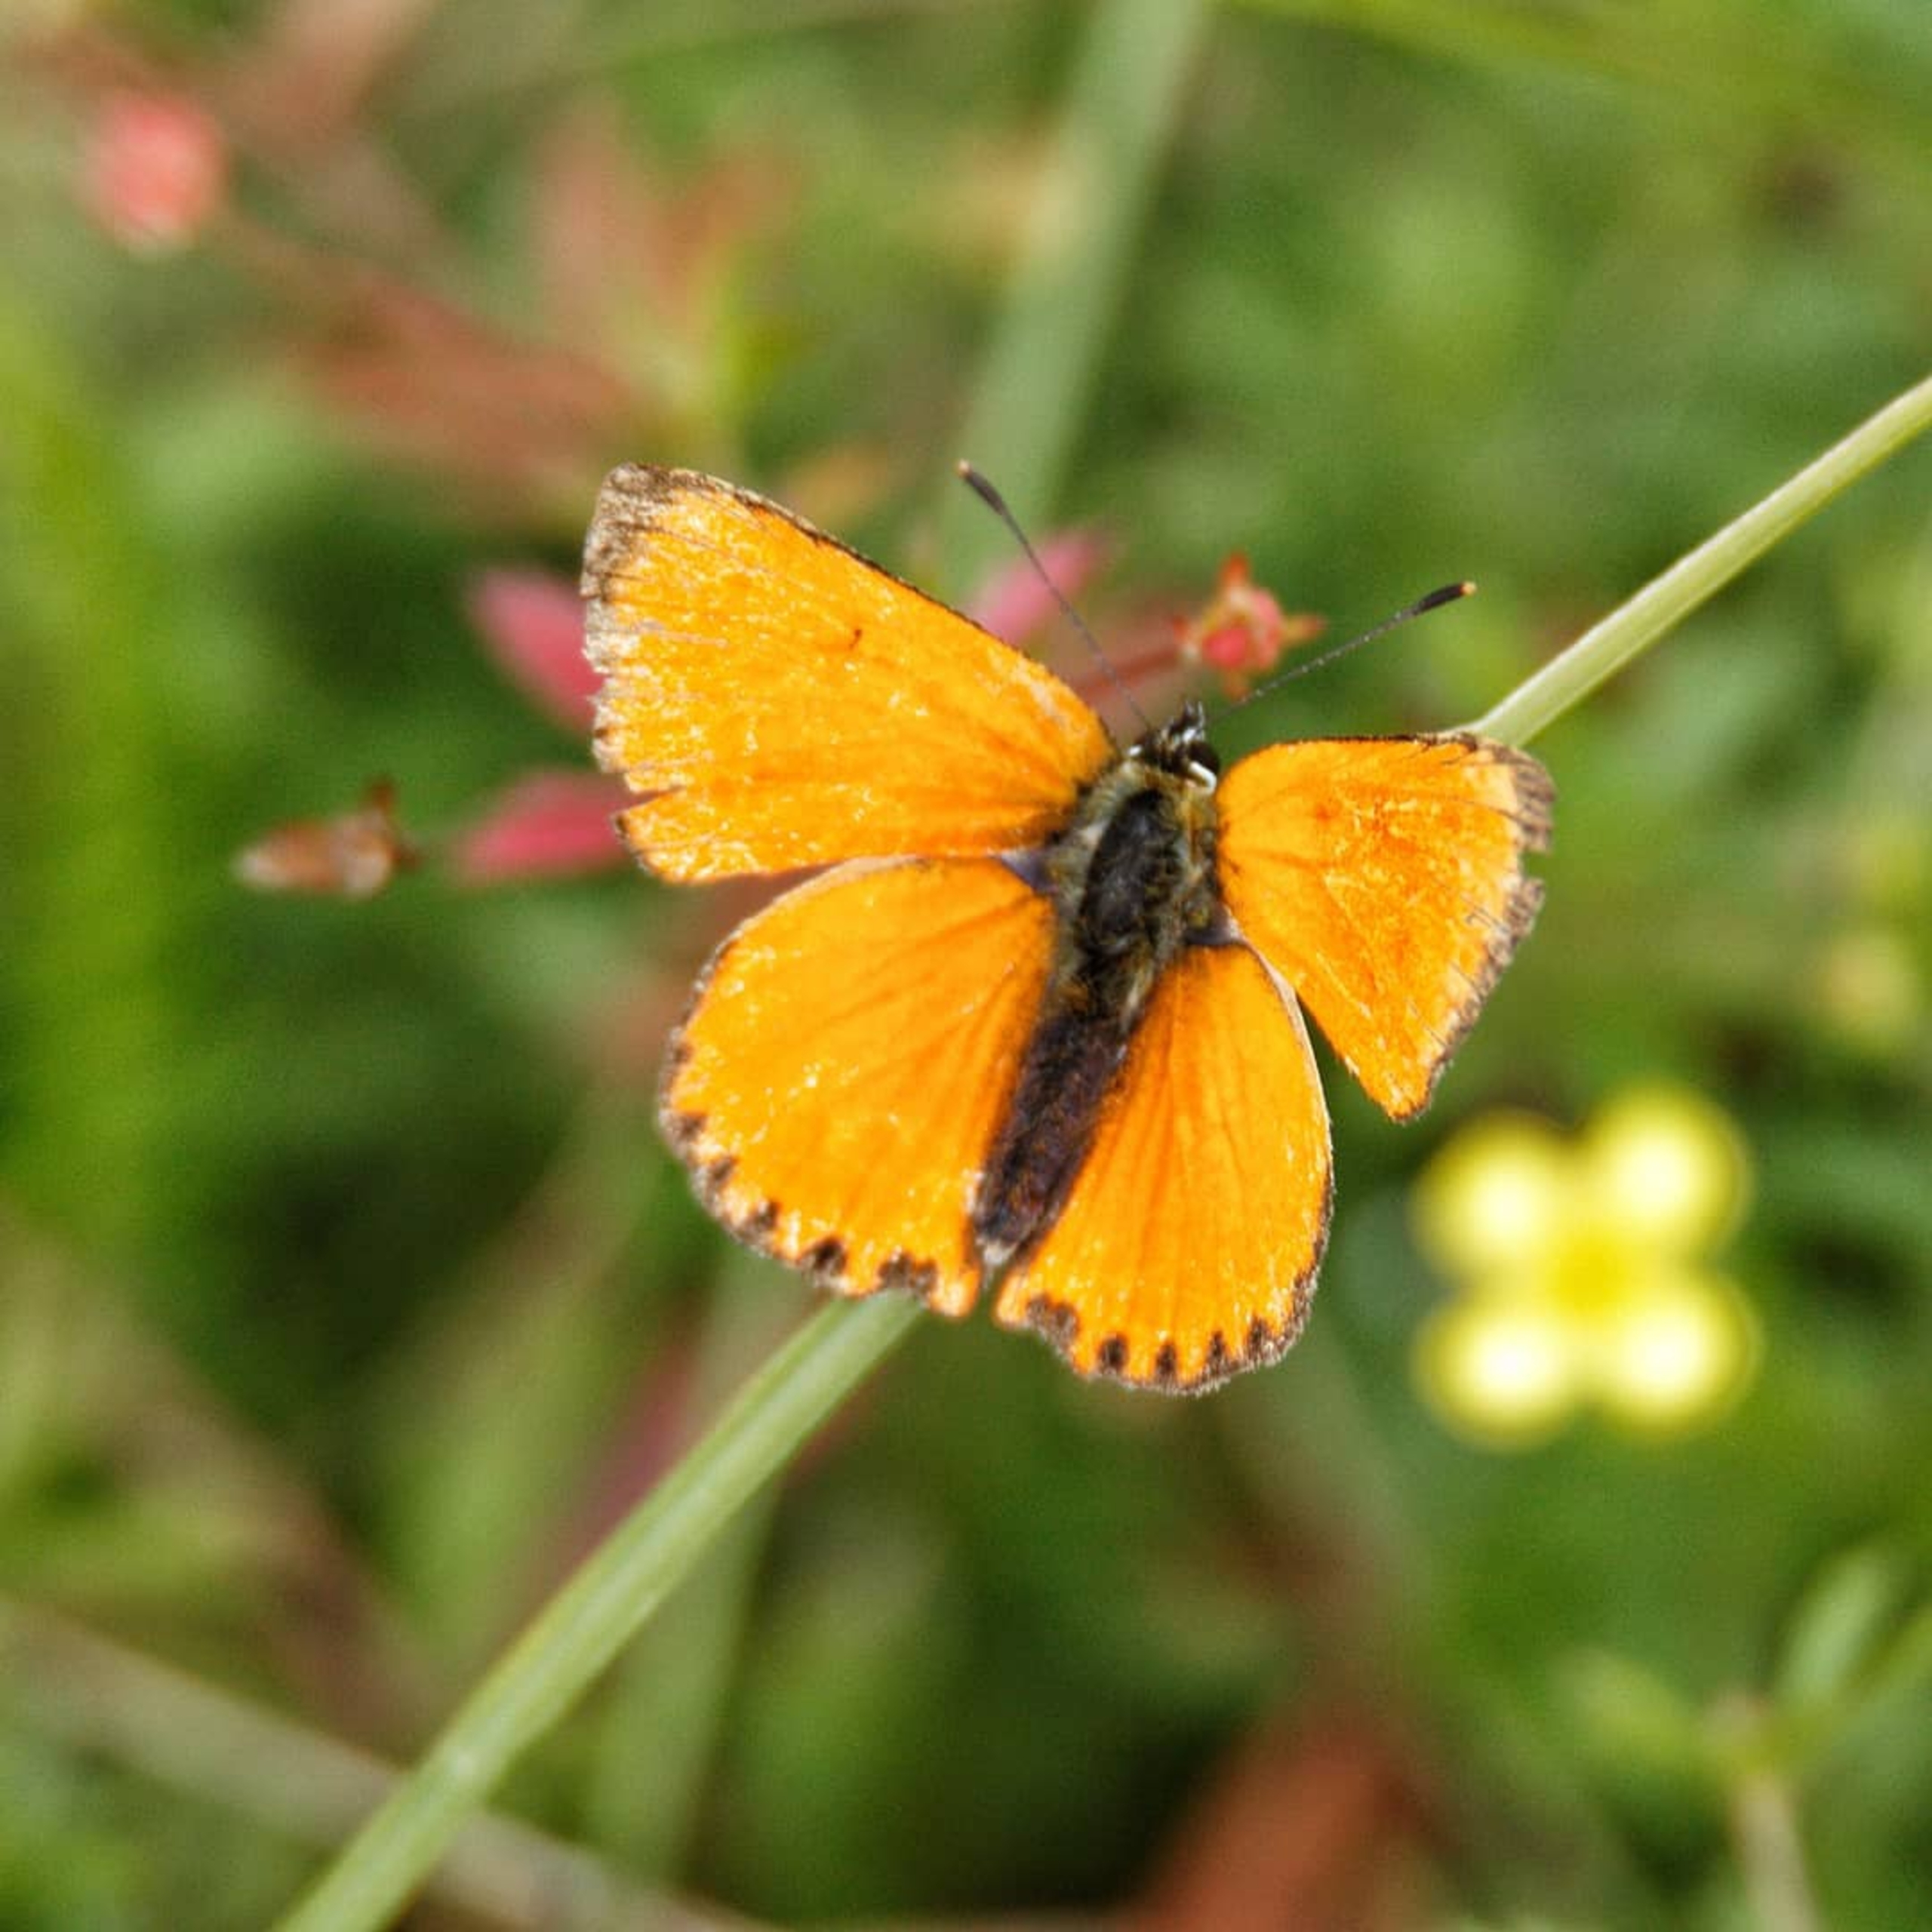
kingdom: Animalia
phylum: Arthropoda
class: Insecta
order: Lepidoptera
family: Lycaenidae
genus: Lycaena
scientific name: Lycaena virgaureae
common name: Dukatsommerfugl
